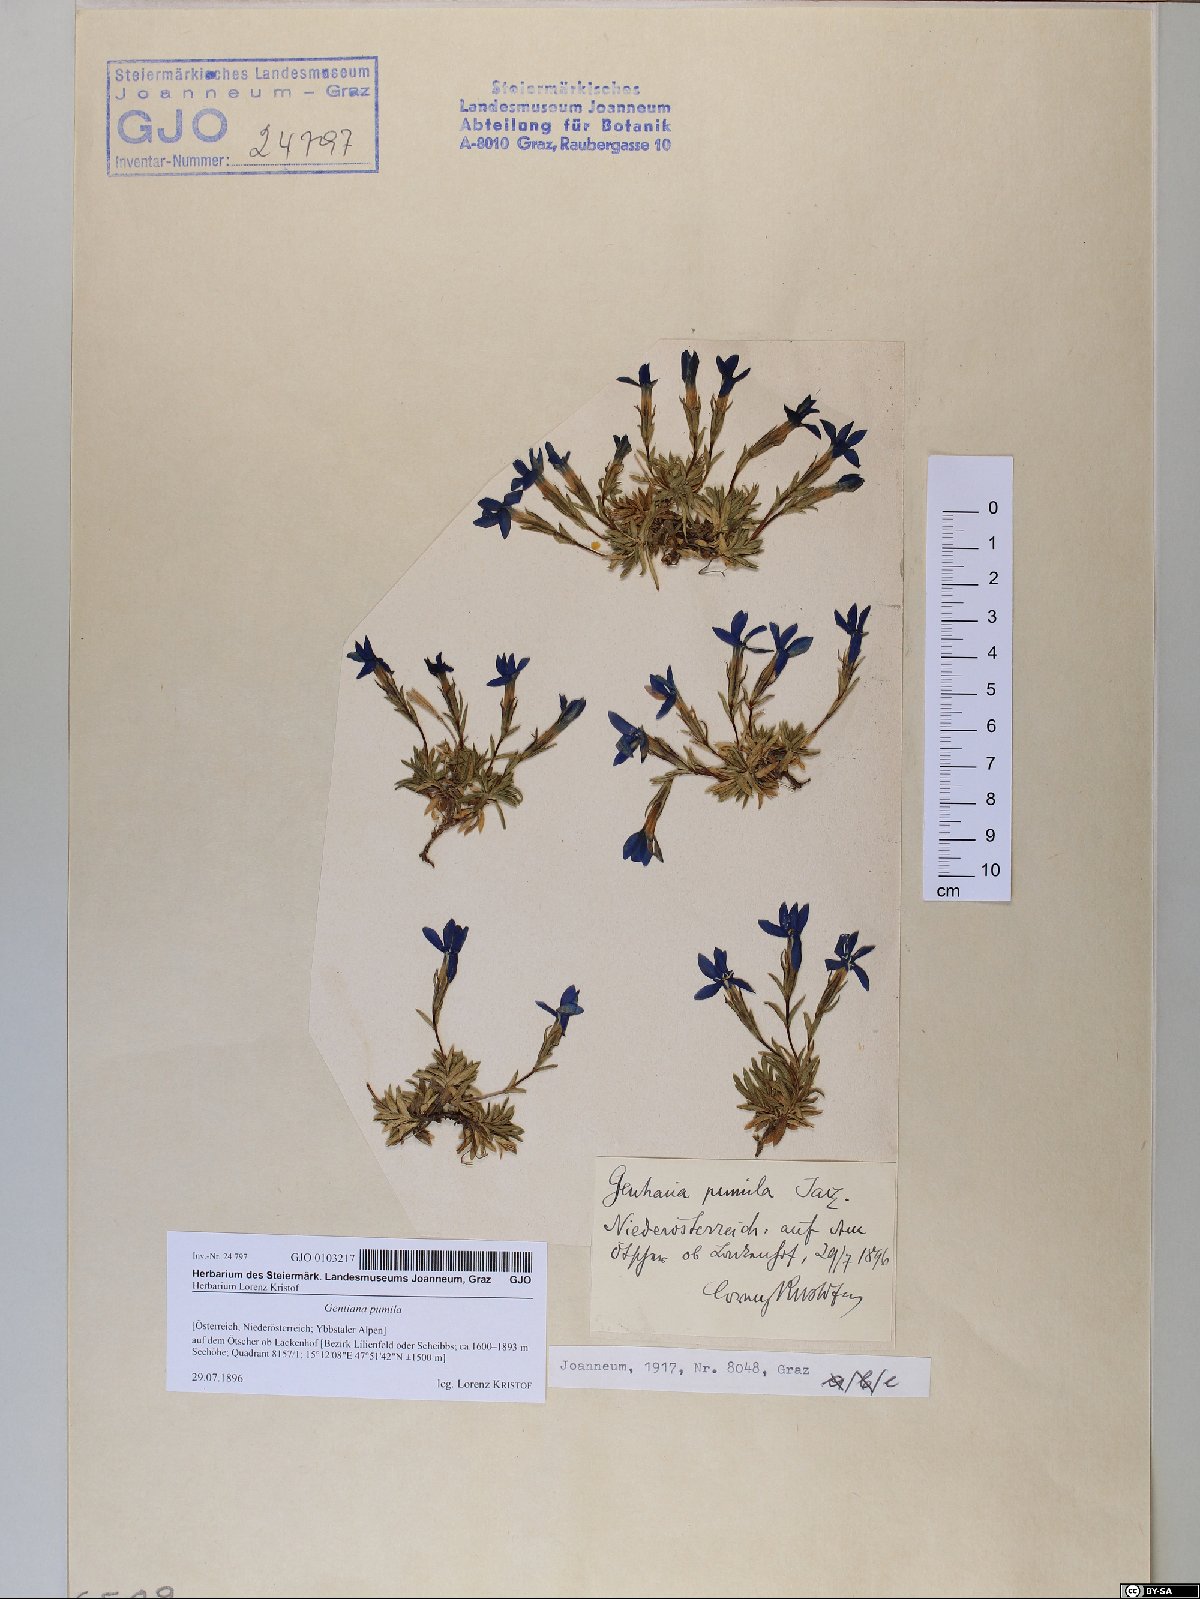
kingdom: Plantae
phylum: Tracheophyta
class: Magnoliopsida
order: Gentianales
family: Gentianaceae
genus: Gentiana
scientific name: Gentiana pumila
